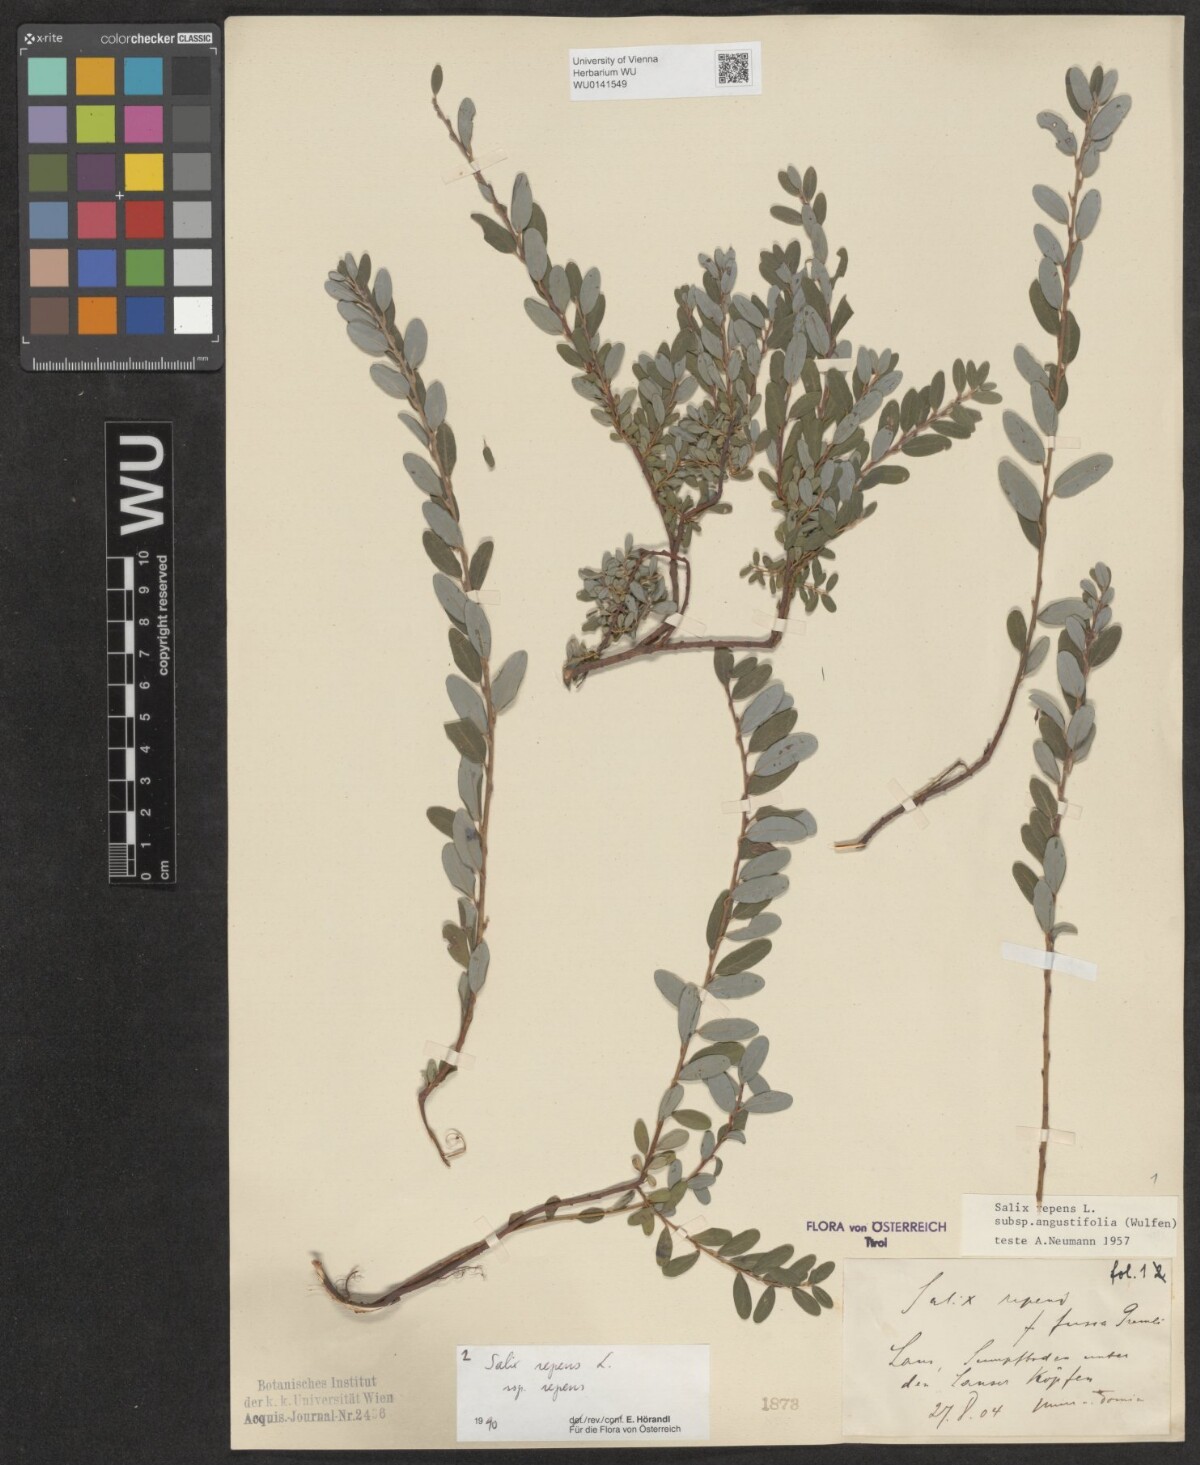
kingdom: Plantae
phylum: Tracheophyta
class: Magnoliopsida
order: Malpighiales
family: Salicaceae
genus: Salix
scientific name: Salix repens
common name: Creeping willow
